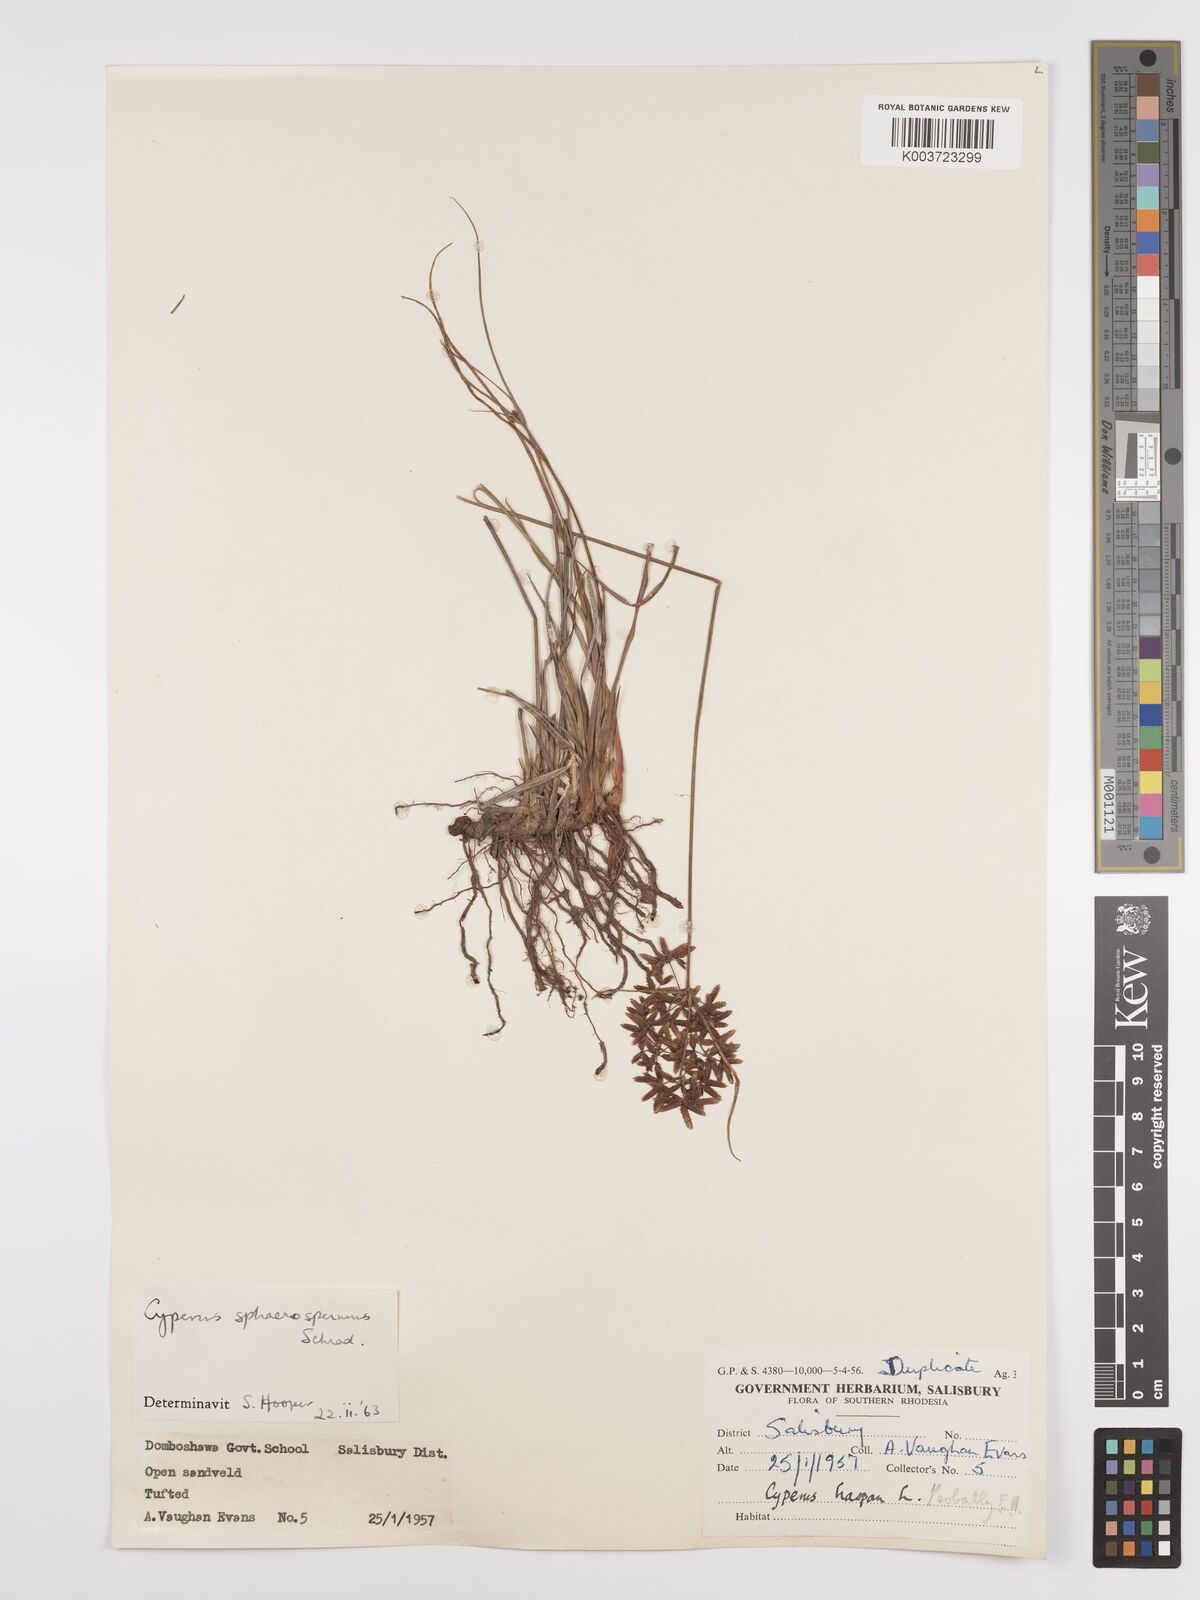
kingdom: Plantae
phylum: Tracheophyta
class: Liliopsida
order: Poales
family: Cyperaceae
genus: Cyperus
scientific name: Cyperus denudatus
